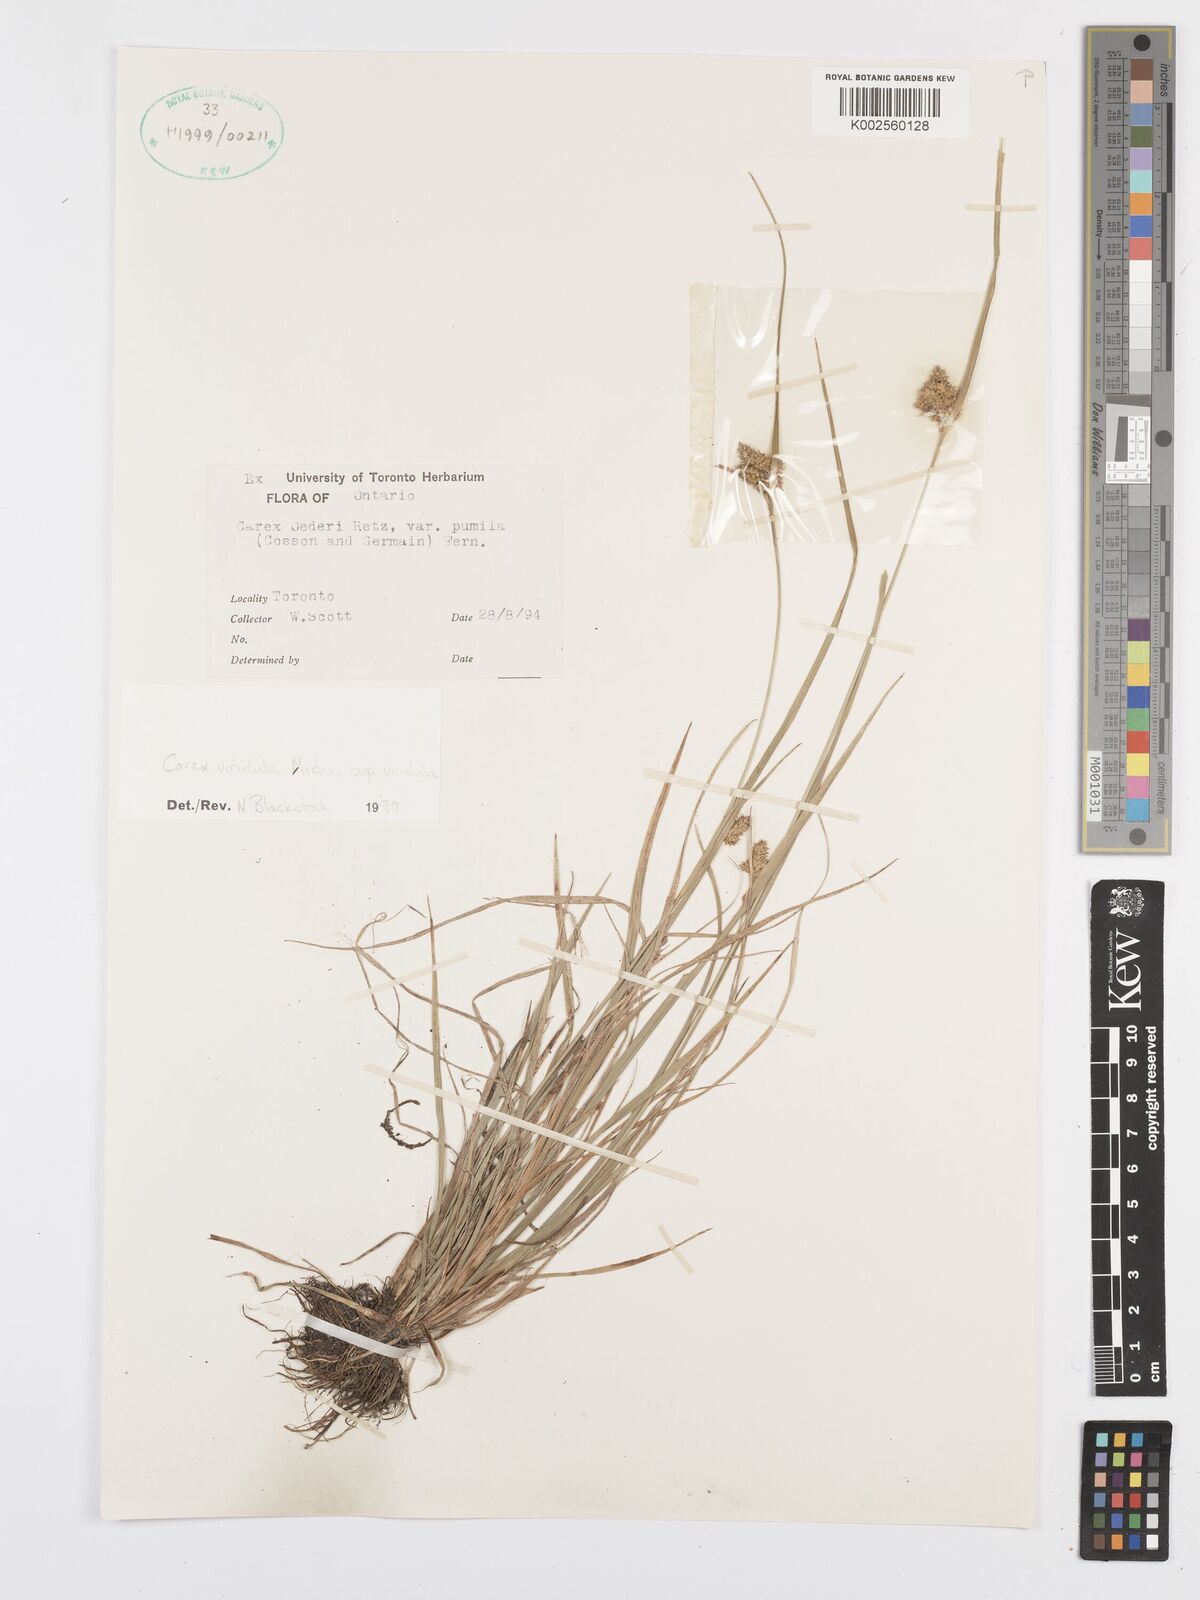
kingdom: Plantae
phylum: Tracheophyta
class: Liliopsida
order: Poales
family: Cyperaceae
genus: Carex
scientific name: Carex oederi
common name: Common & small-fruited yellow-sedge
